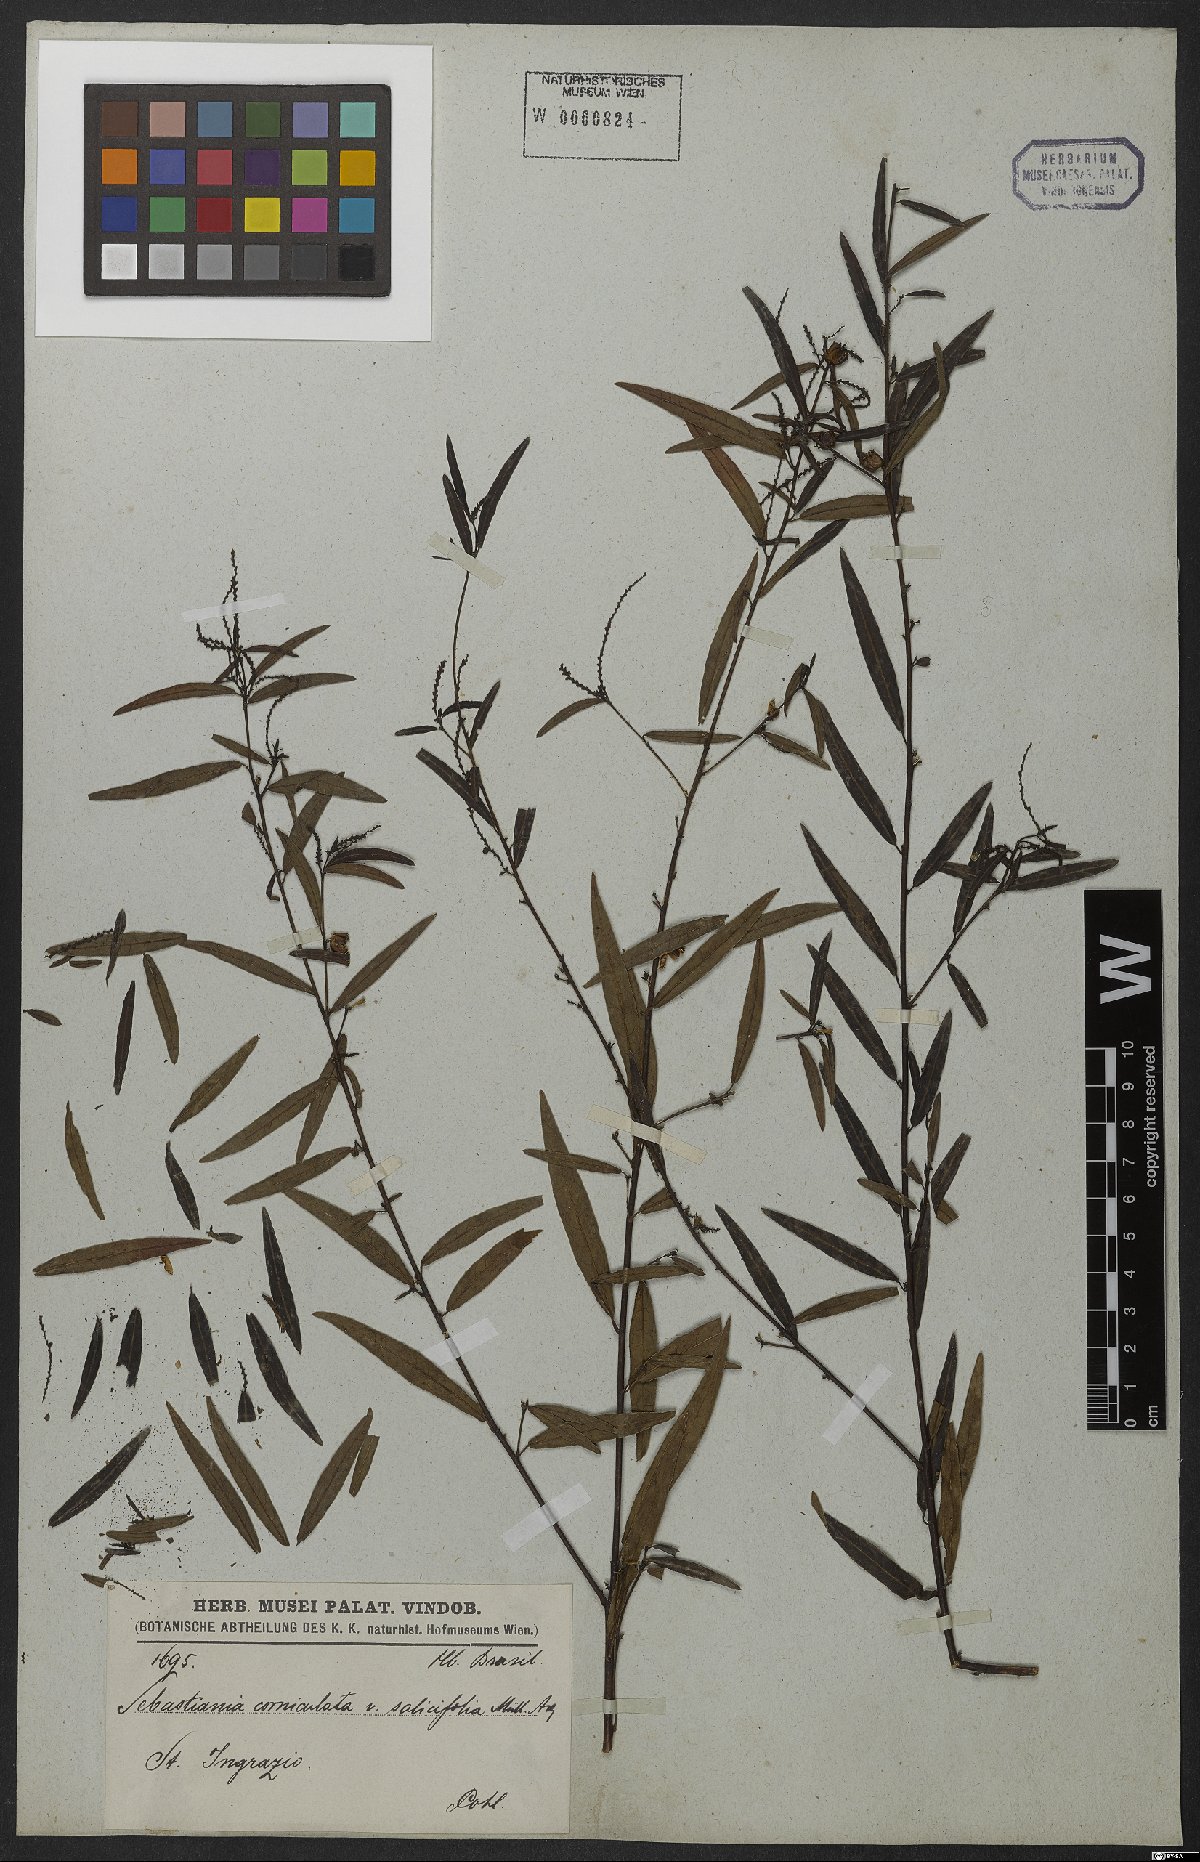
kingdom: Plantae
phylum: Tracheophyta
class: Magnoliopsida
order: Malpighiales
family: Euphorbiaceae
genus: Microstachys
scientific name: Microstachys salicifolia
